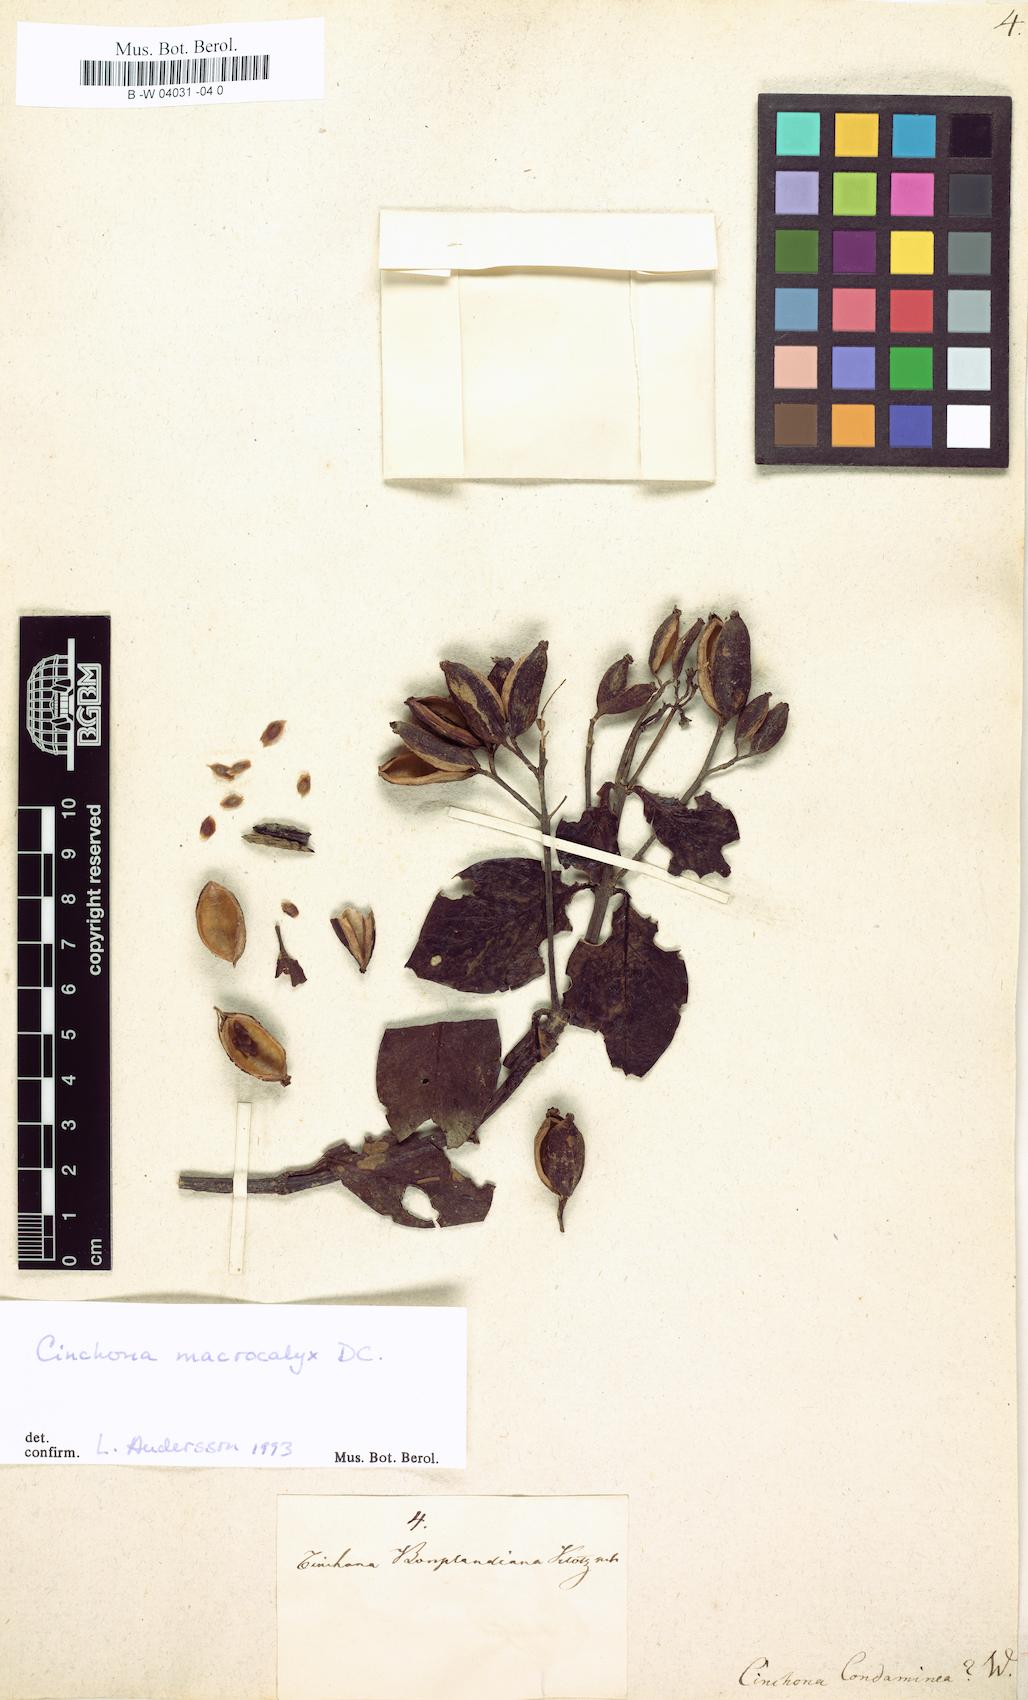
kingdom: Plantae
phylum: Tracheophyta
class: Magnoliopsida
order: Gentianales
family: Rubiaceae
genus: Cinchona
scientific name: Cinchona officinalis
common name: Lojabark
